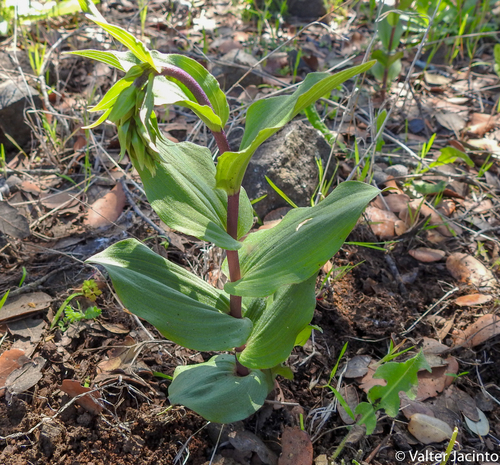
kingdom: Plantae
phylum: Tracheophyta
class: Liliopsida
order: Asparagales
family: Orchidaceae
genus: Epipactis
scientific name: Epipactis helleborine
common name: Broad-leaved helleborine
